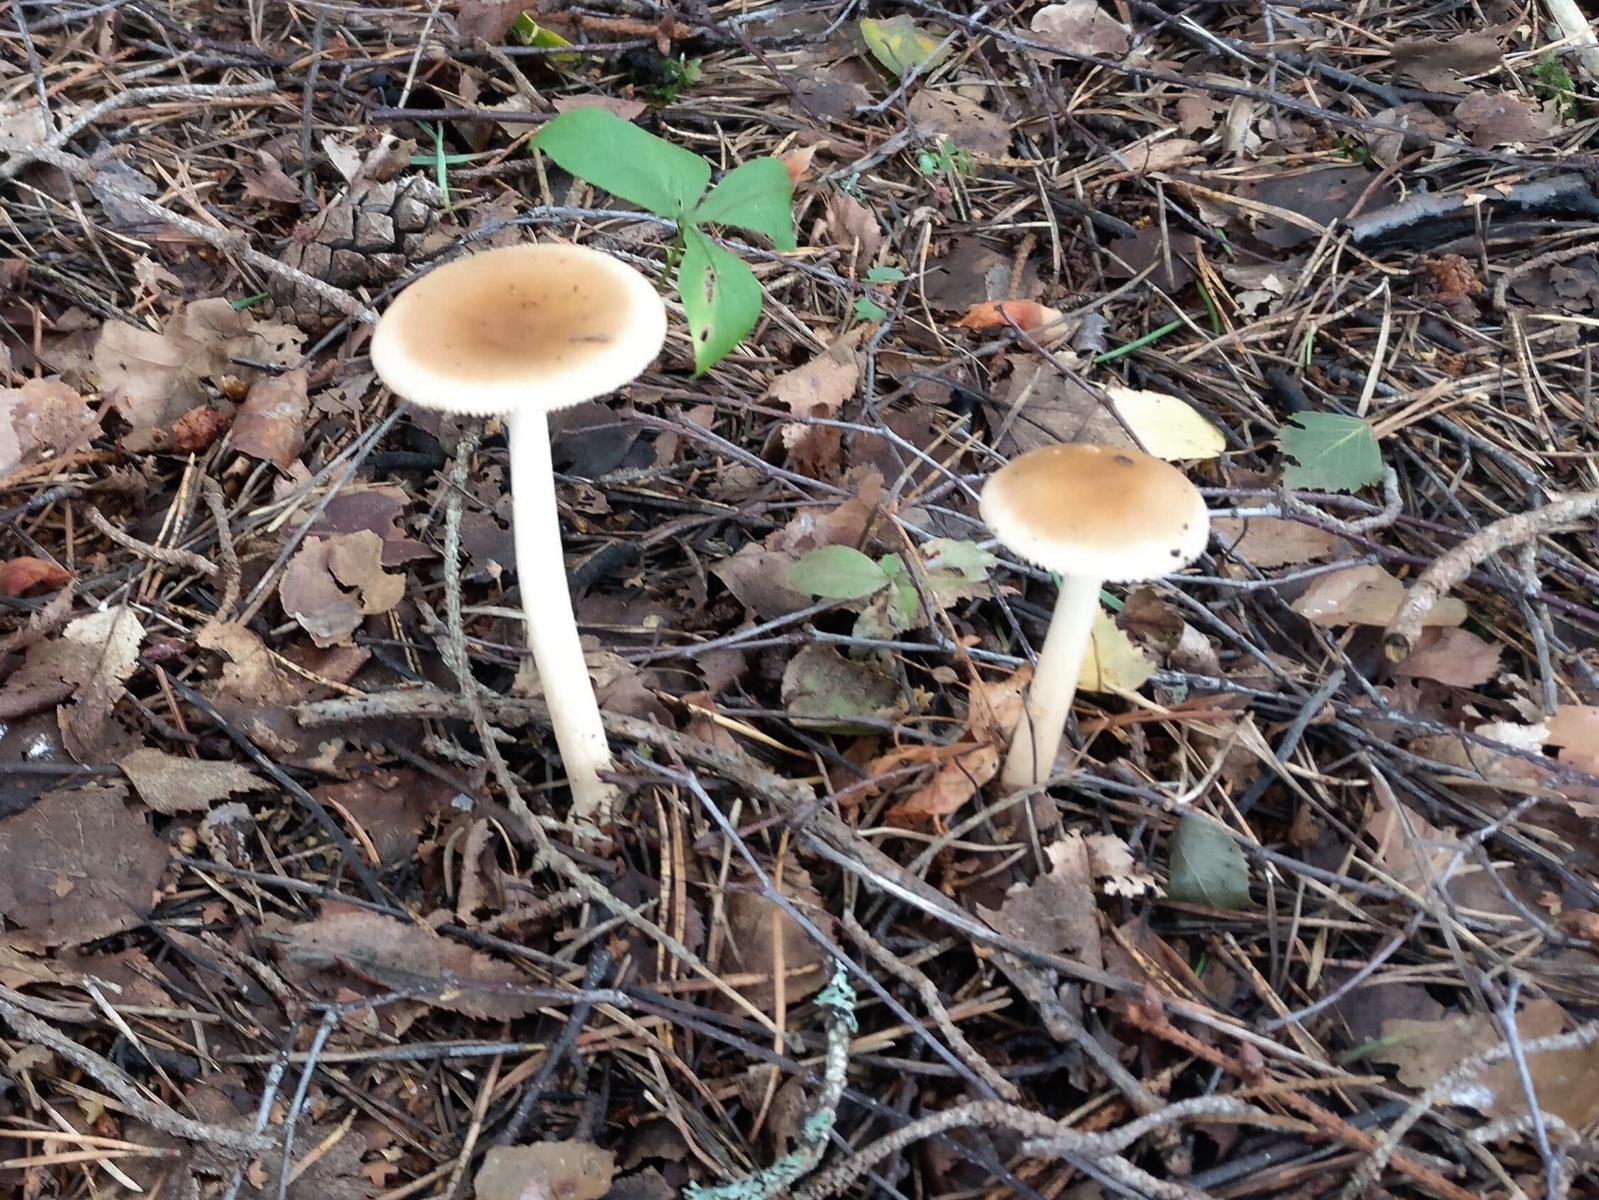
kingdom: Fungi
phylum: Basidiomycota
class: Agaricomycetes
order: Agaricales
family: Amanitaceae
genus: Amanita
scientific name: Amanita fulva
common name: brun kam-fluesvamp
